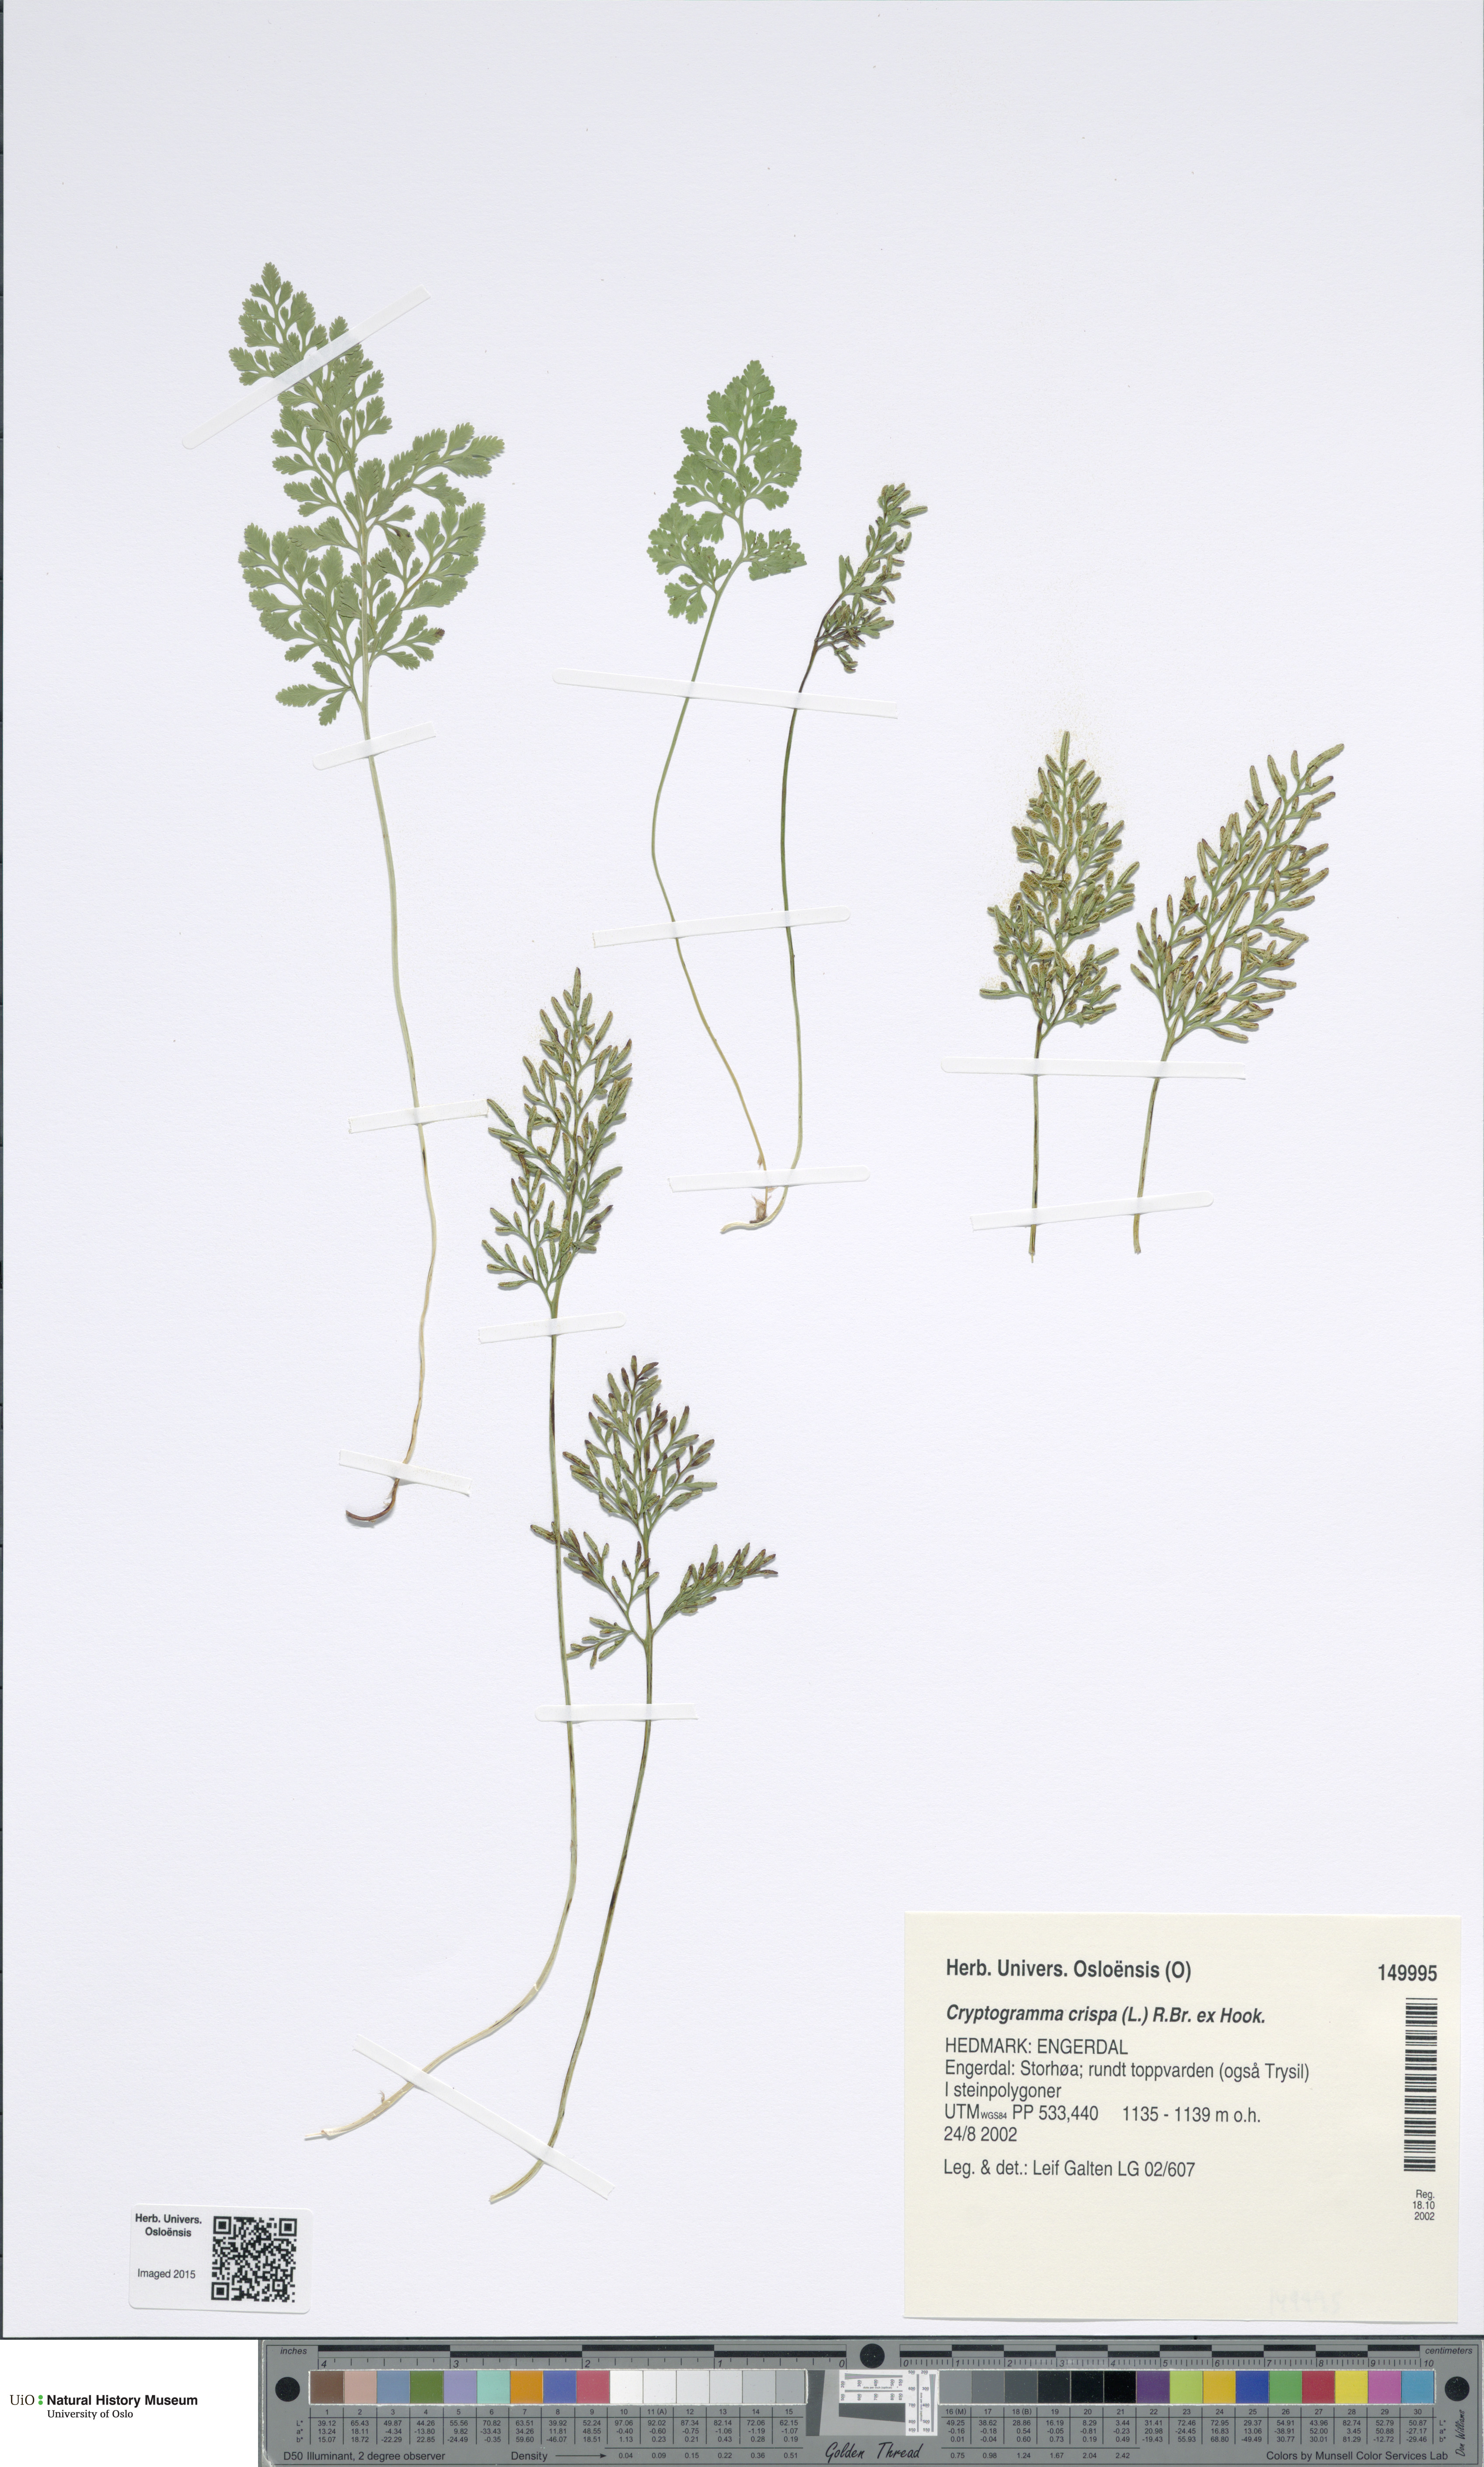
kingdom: Plantae
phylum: Tracheophyta
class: Polypodiopsida
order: Polypodiales
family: Pteridaceae
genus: Cryptogramma
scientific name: Cryptogramma crispa
